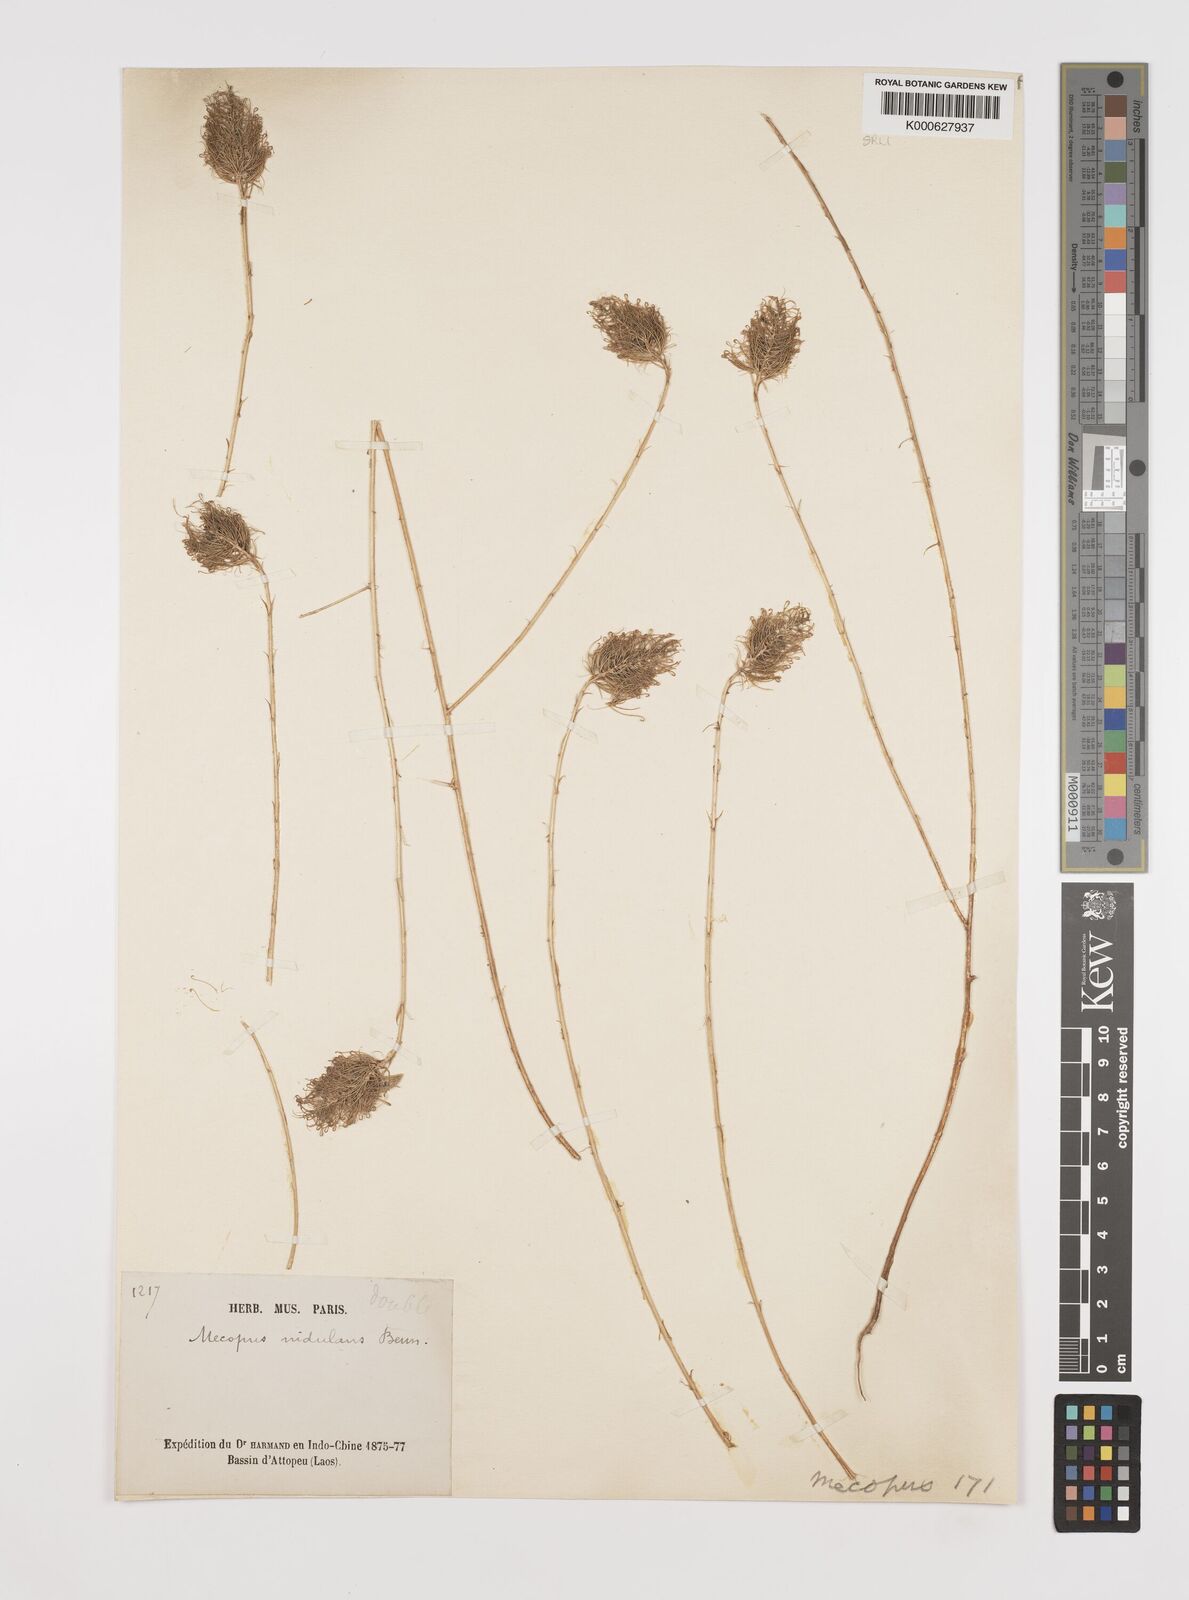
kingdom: Plantae
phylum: Tracheophyta
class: Magnoliopsida
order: Fabales
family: Fabaceae
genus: Mecopus
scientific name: Mecopus nidulans
